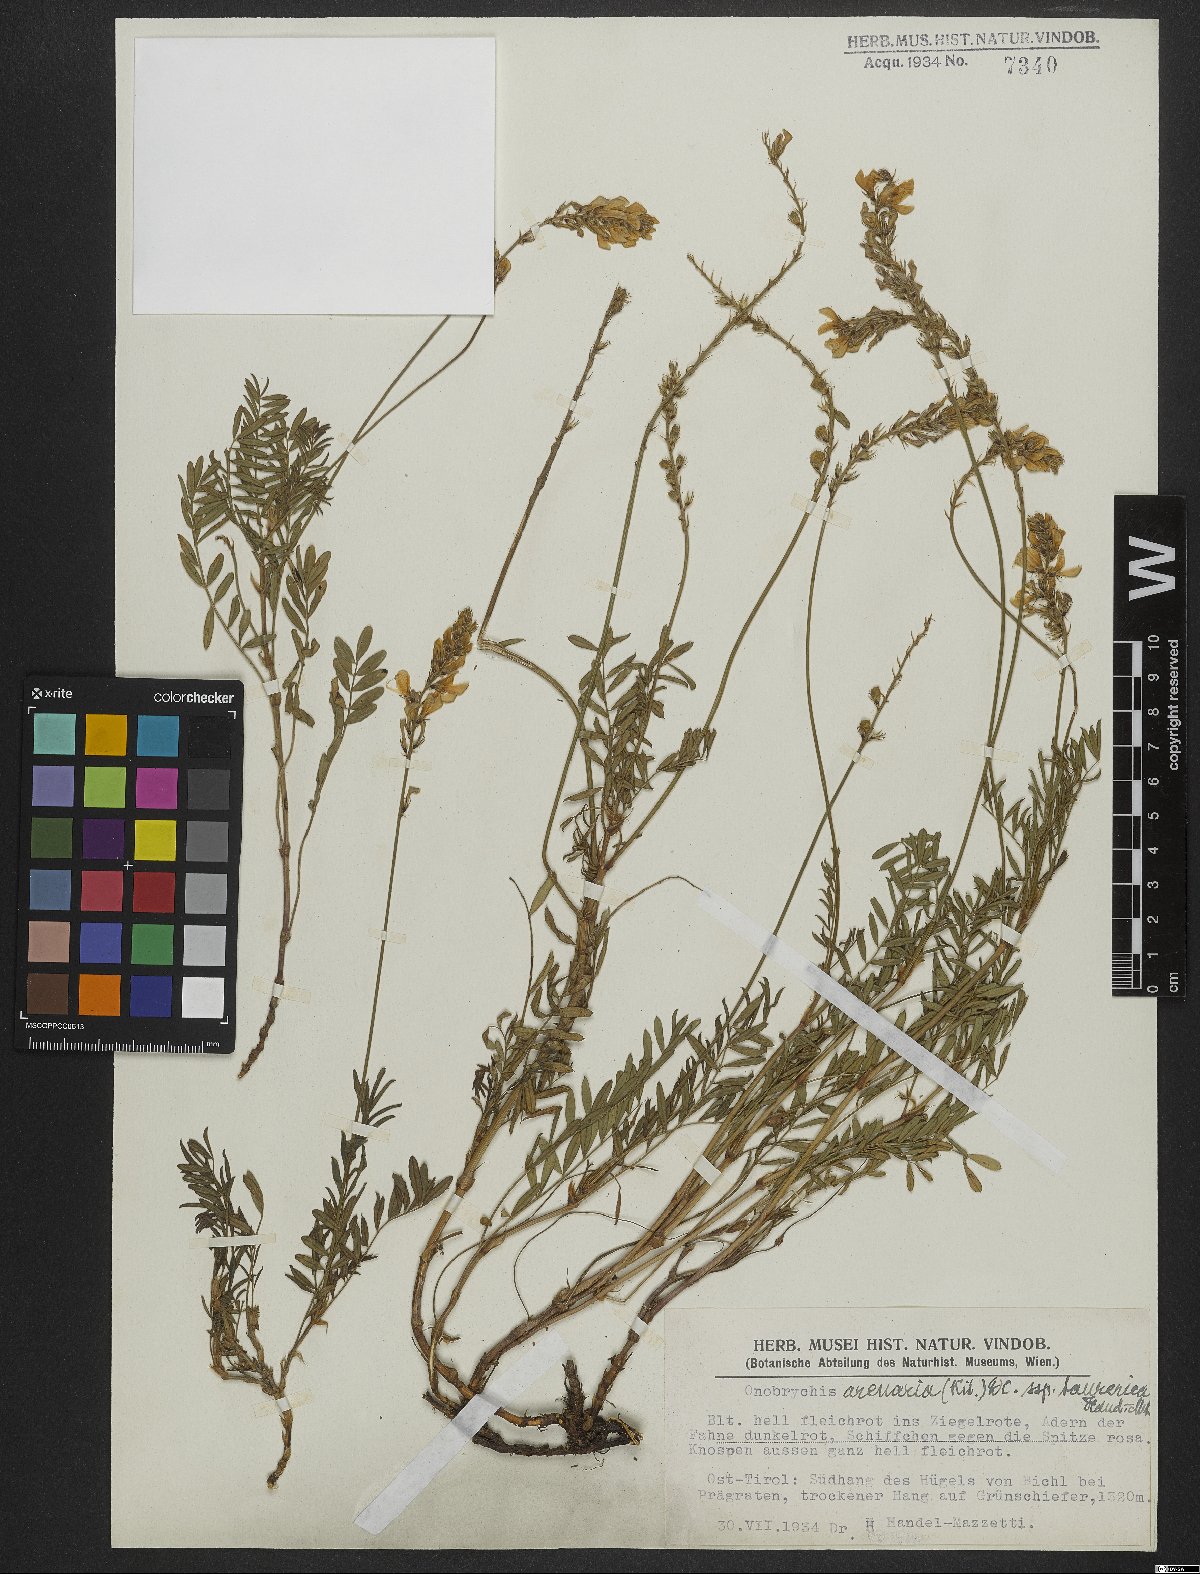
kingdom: Plantae
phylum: Tracheophyta
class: Magnoliopsida
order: Fabales
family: Fabaceae
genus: Onobrychis
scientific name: Onobrychis arenaria
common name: Sand esparcet
